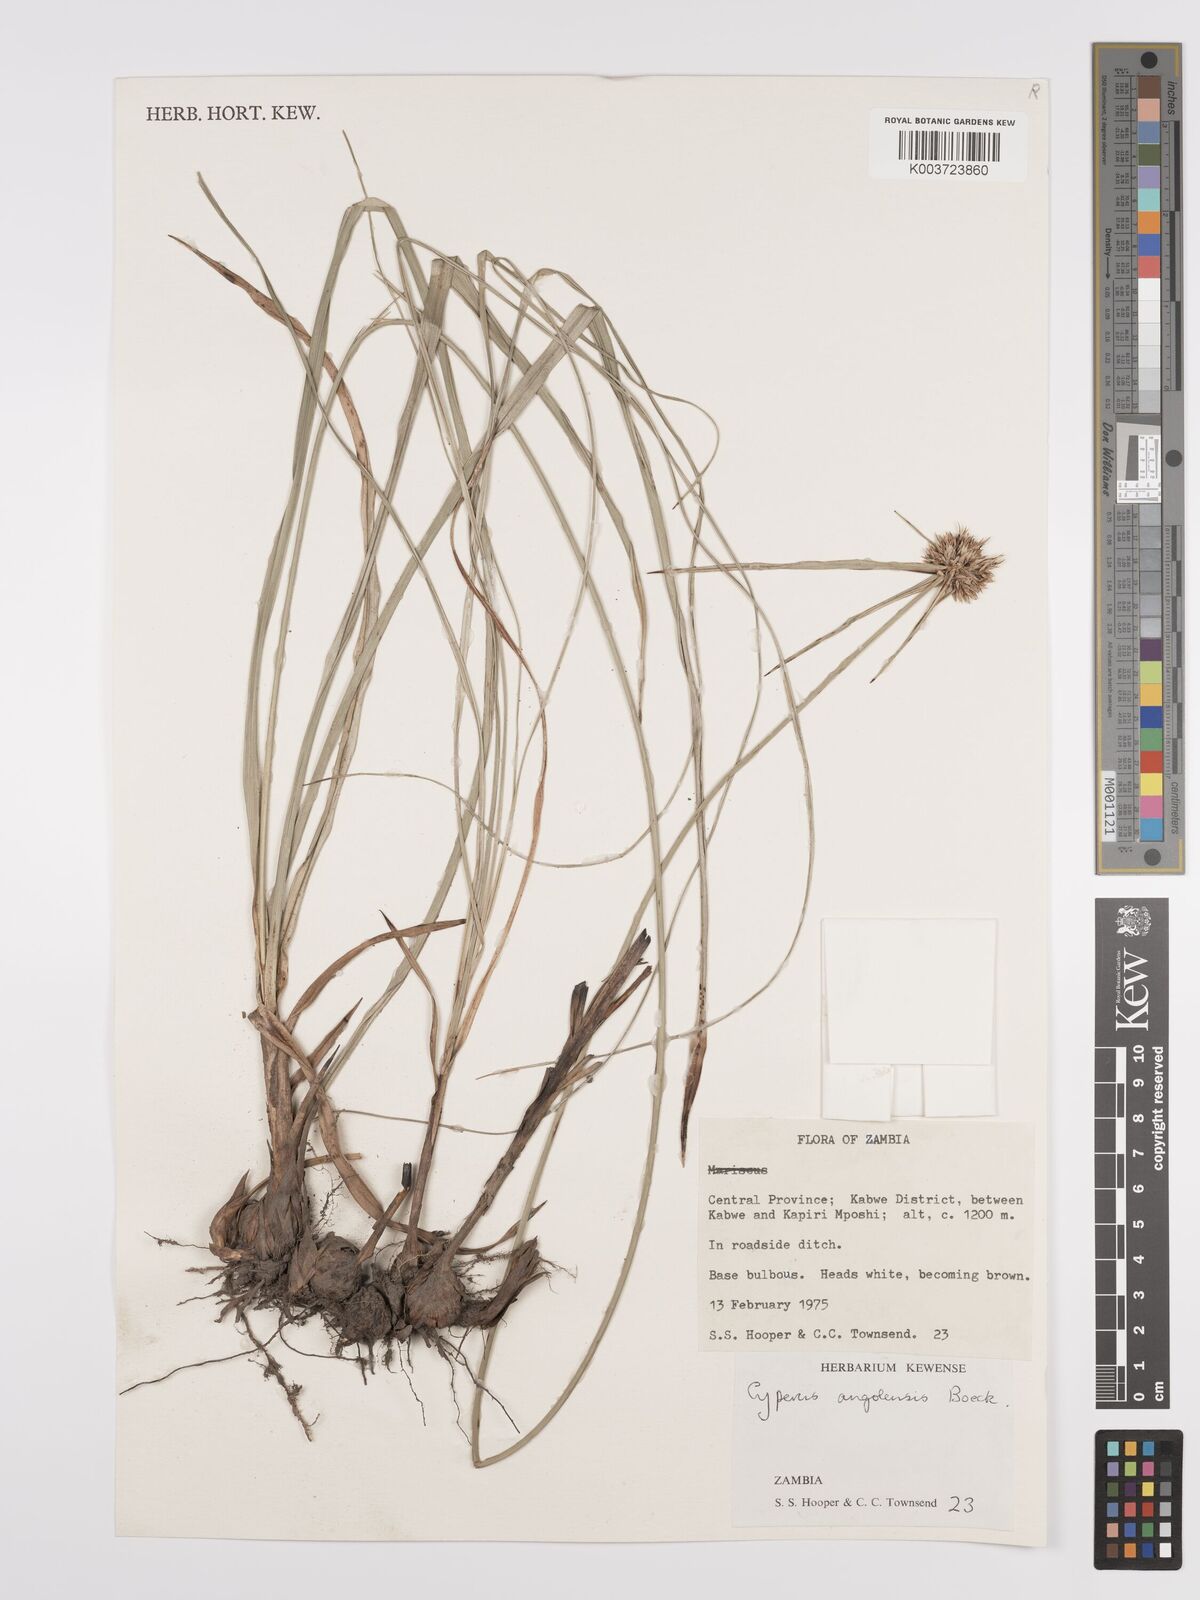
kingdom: Plantae
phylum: Tracheophyta
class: Liliopsida
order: Poales
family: Cyperaceae
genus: Cyperus
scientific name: Cyperus angolensis
